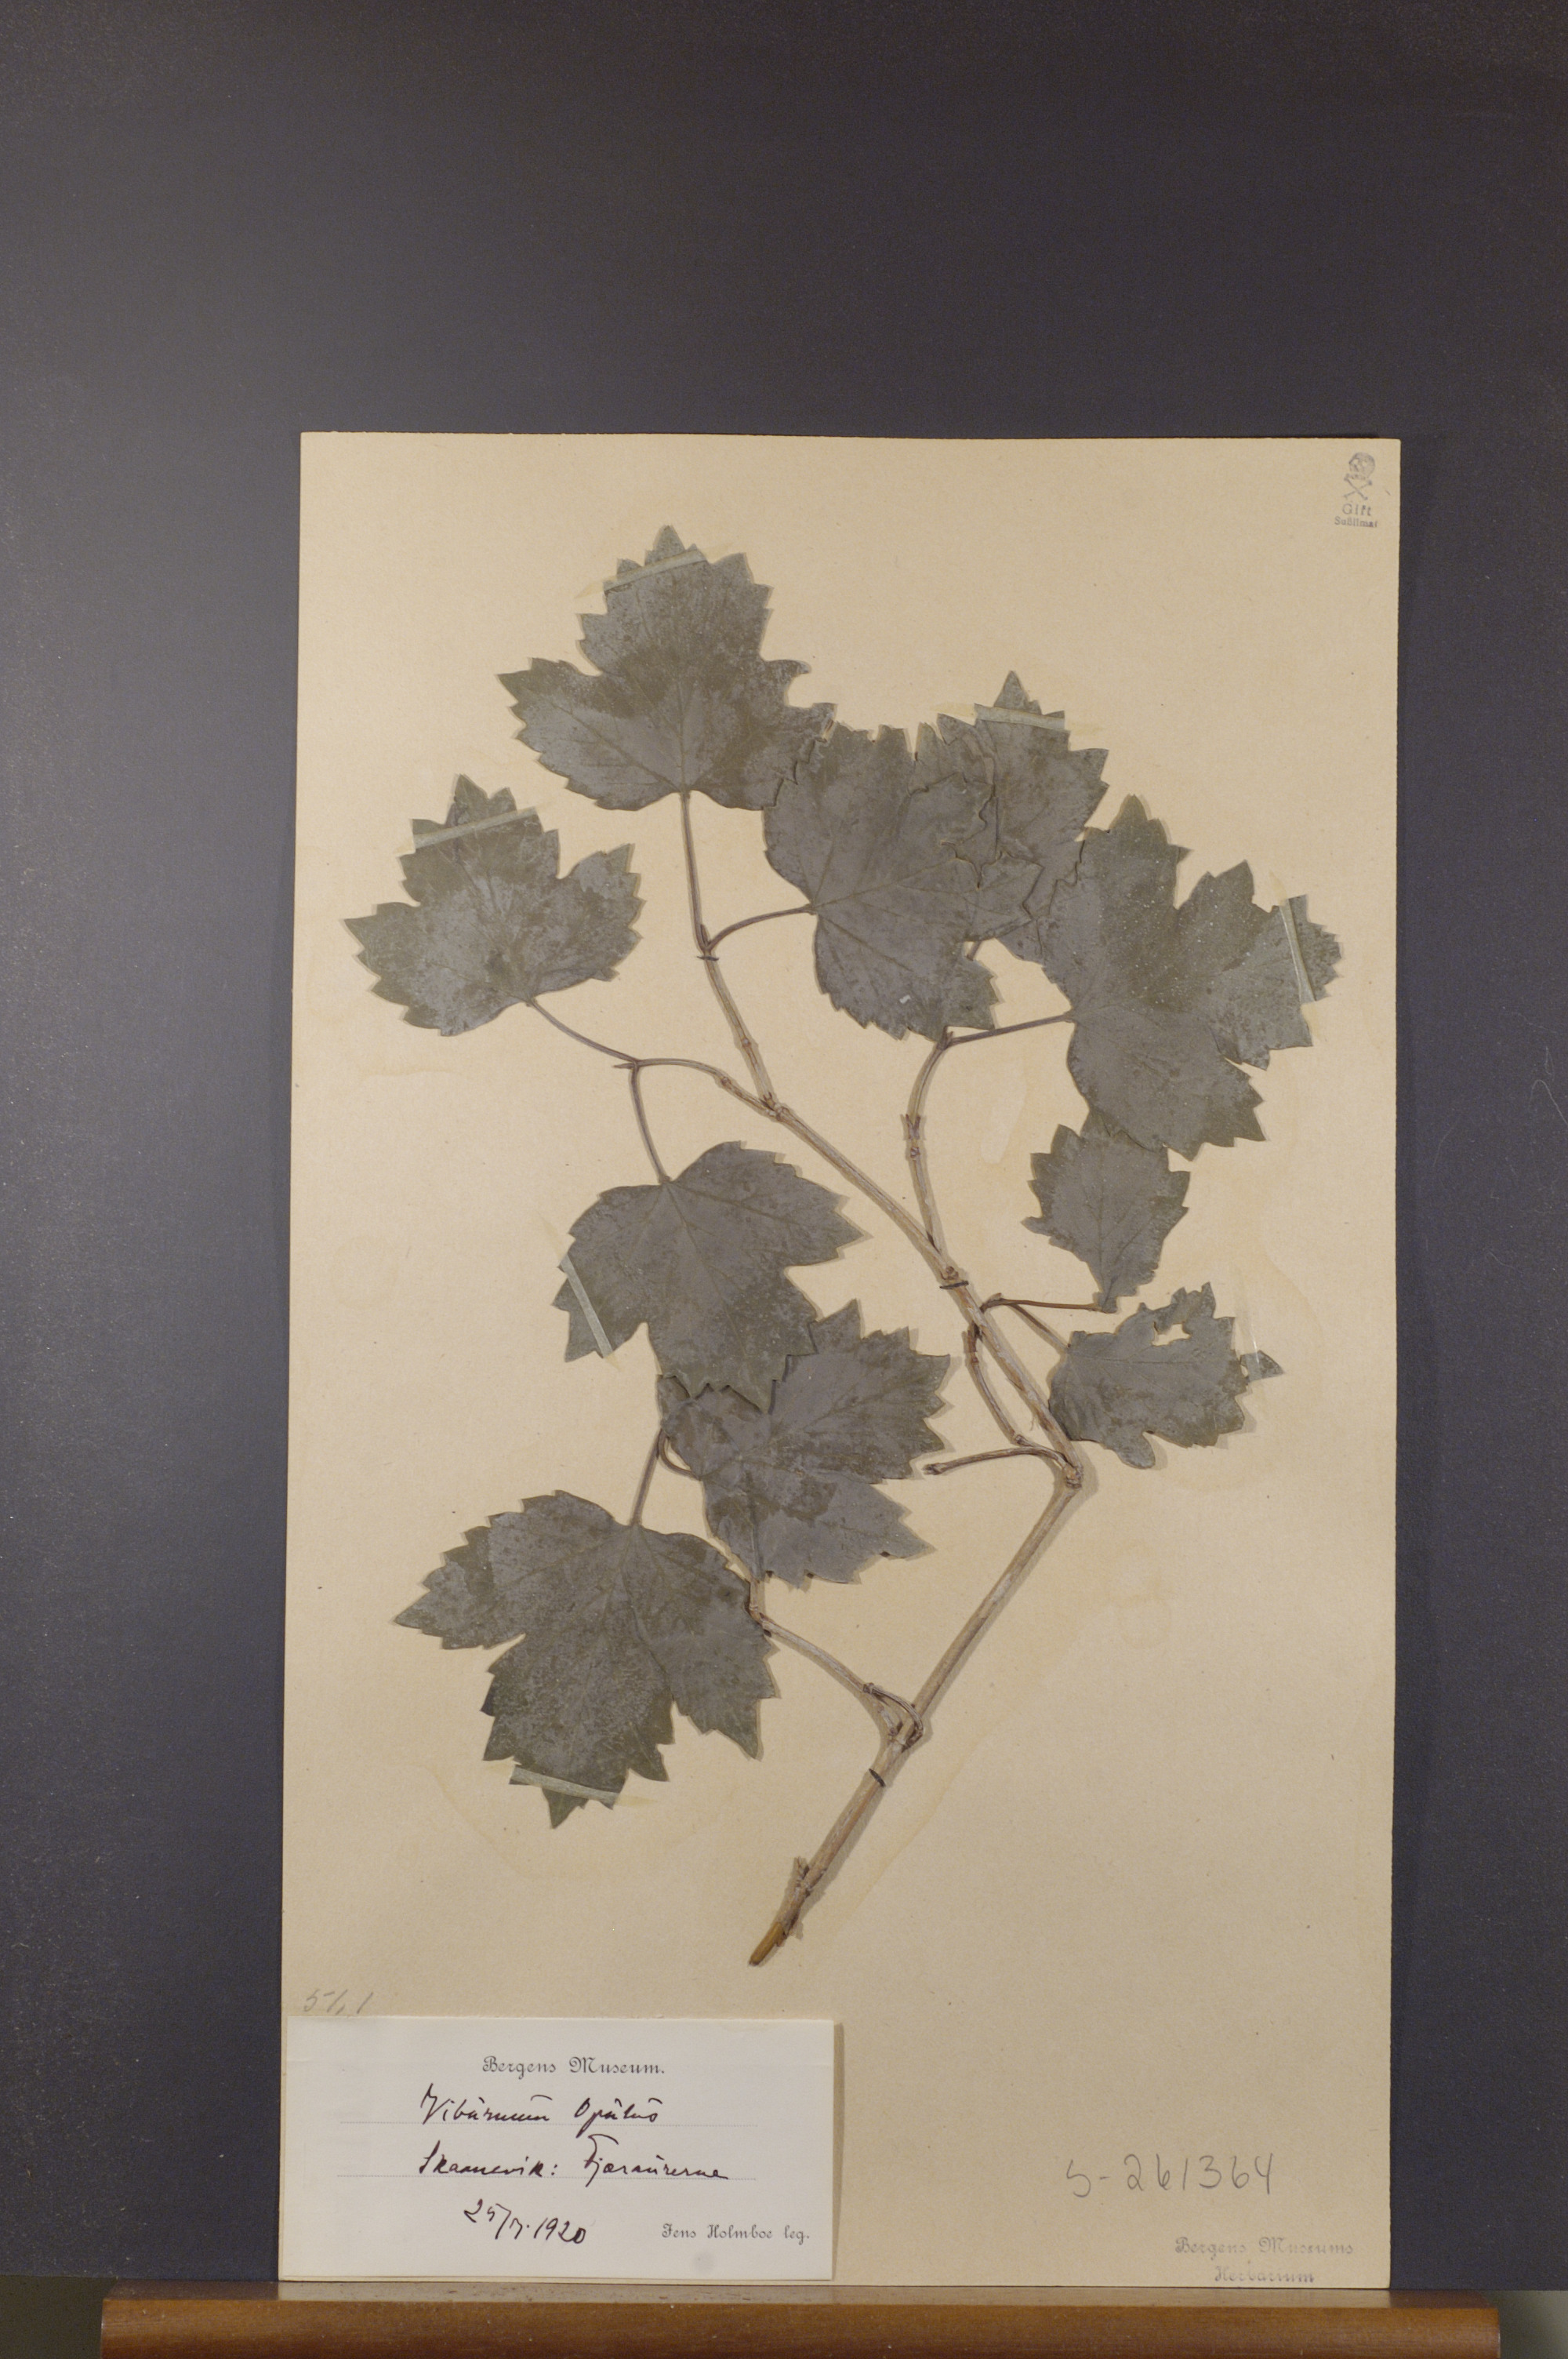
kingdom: Plantae
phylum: Tracheophyta
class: Magnoliopsida
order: Dipsacales
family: Viburnaceae
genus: Viburnum
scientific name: Viburnum opulus
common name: Guelder-rose
